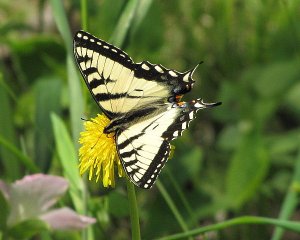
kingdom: Animalia
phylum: Arthropoda
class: Insecta
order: Lepidoptera
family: Papilionidae
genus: Pterourus
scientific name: Pterourus canadensis
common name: Canadian Tiger Swallowtail
